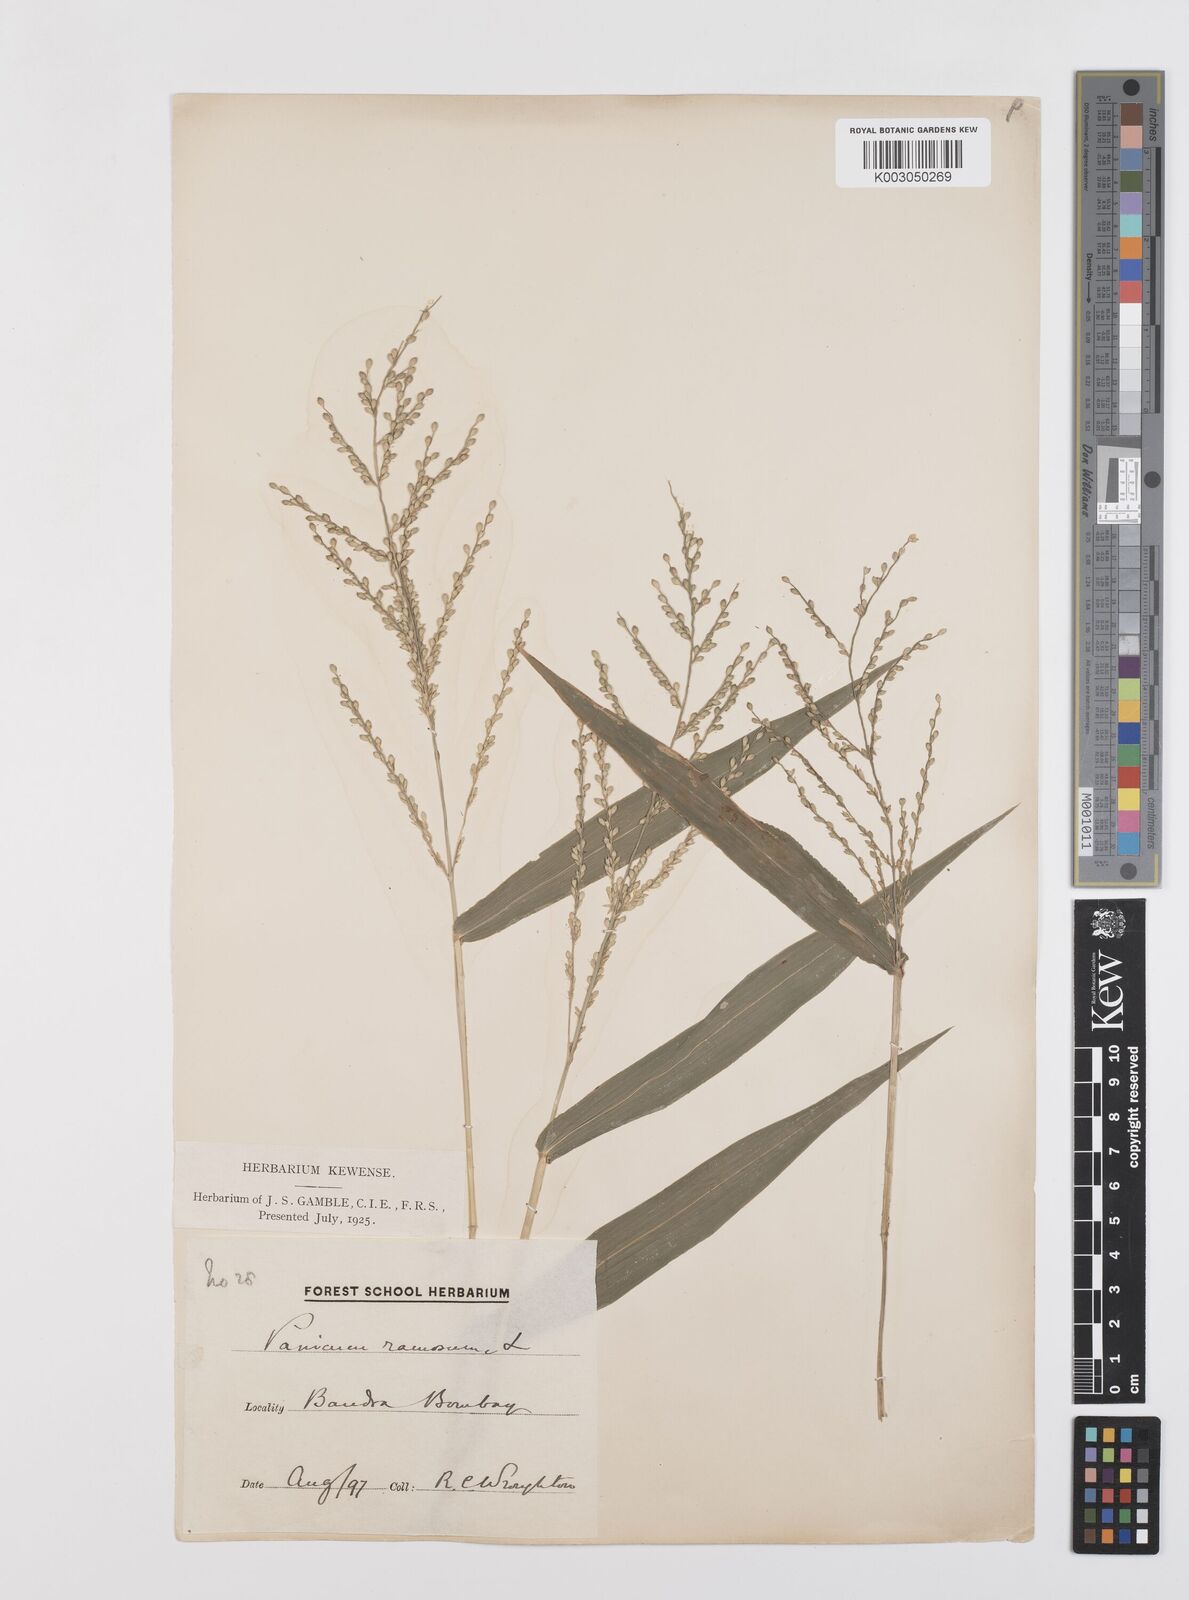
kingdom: Plantae
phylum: Tracheophyta
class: Liliopsida
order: Poales
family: Poaceae
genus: Urochloa
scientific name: Urochloa ramosa
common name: Browntop millet
